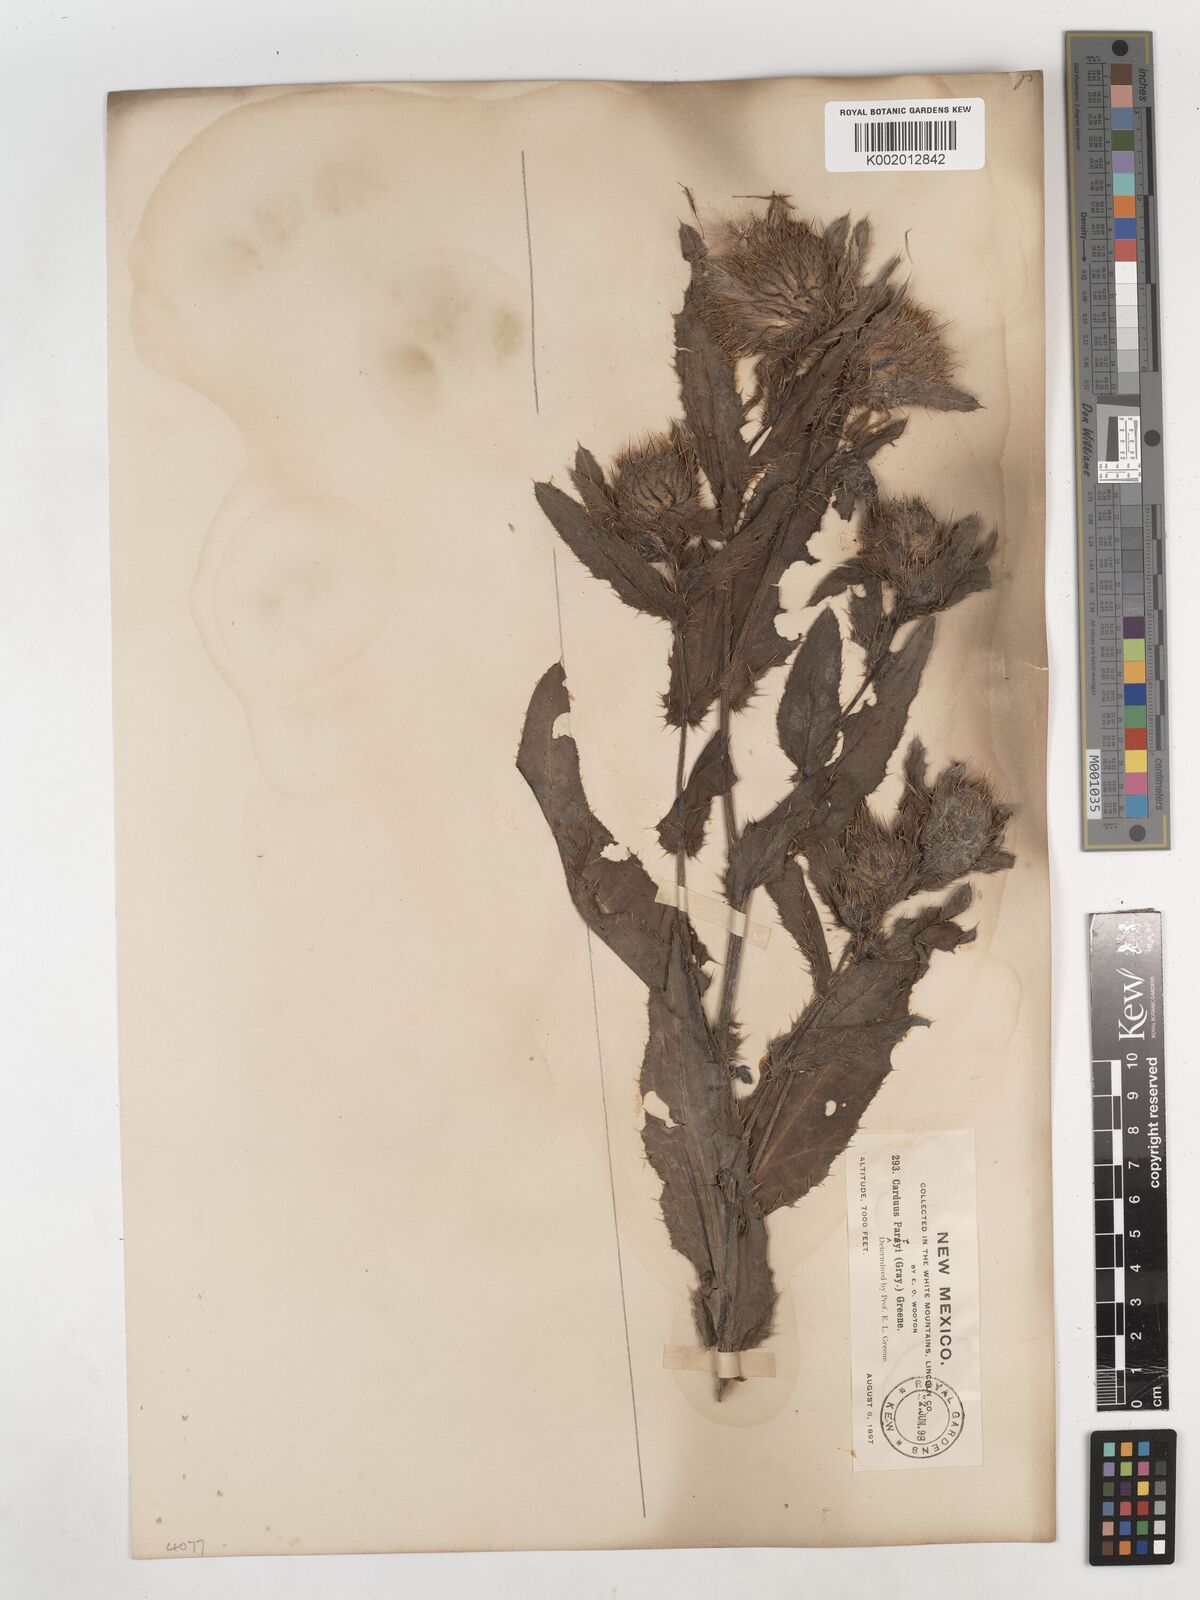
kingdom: Plantae
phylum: Tracheophyta
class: Magnoliopsida
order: Asterales
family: Asteraceae
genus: Cirsium
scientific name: Cirsium
